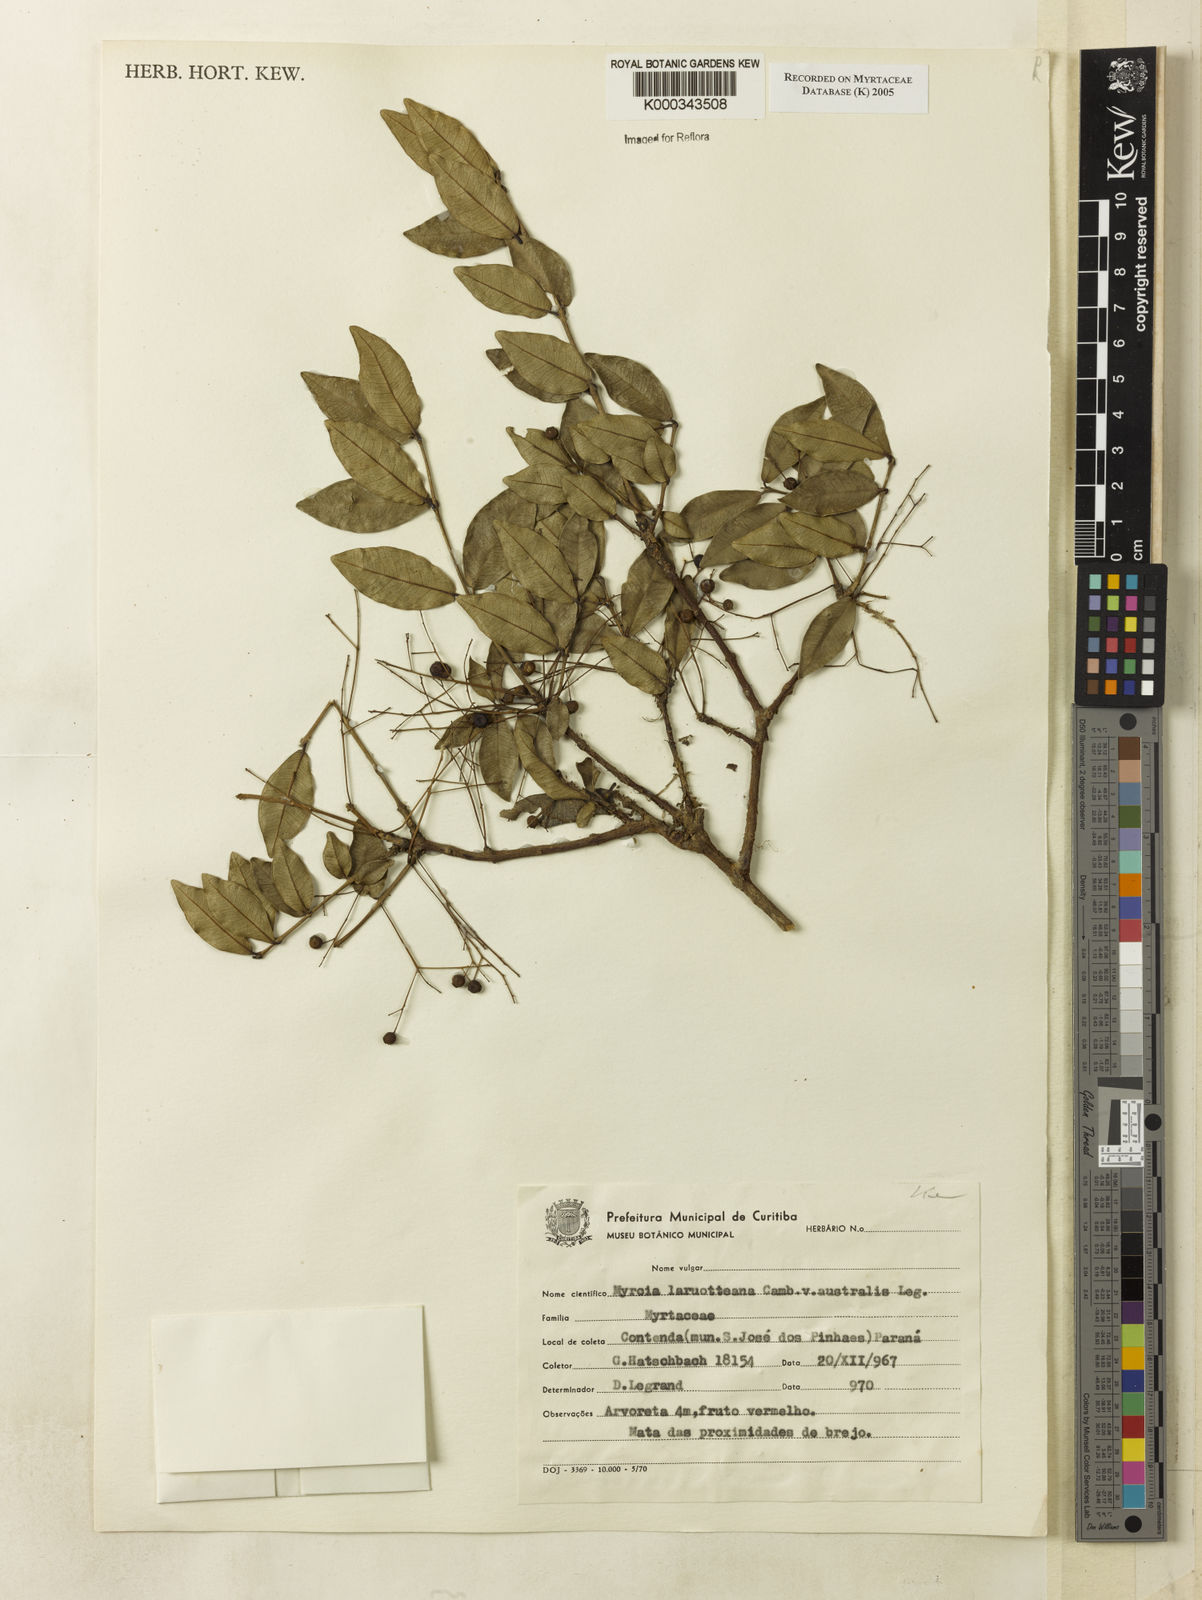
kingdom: Plantae
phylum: Tracheophyta
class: Magnoliopsida
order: Myrtales
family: Myrtaceae
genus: Myrcia
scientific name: Myrcia laruotteana
